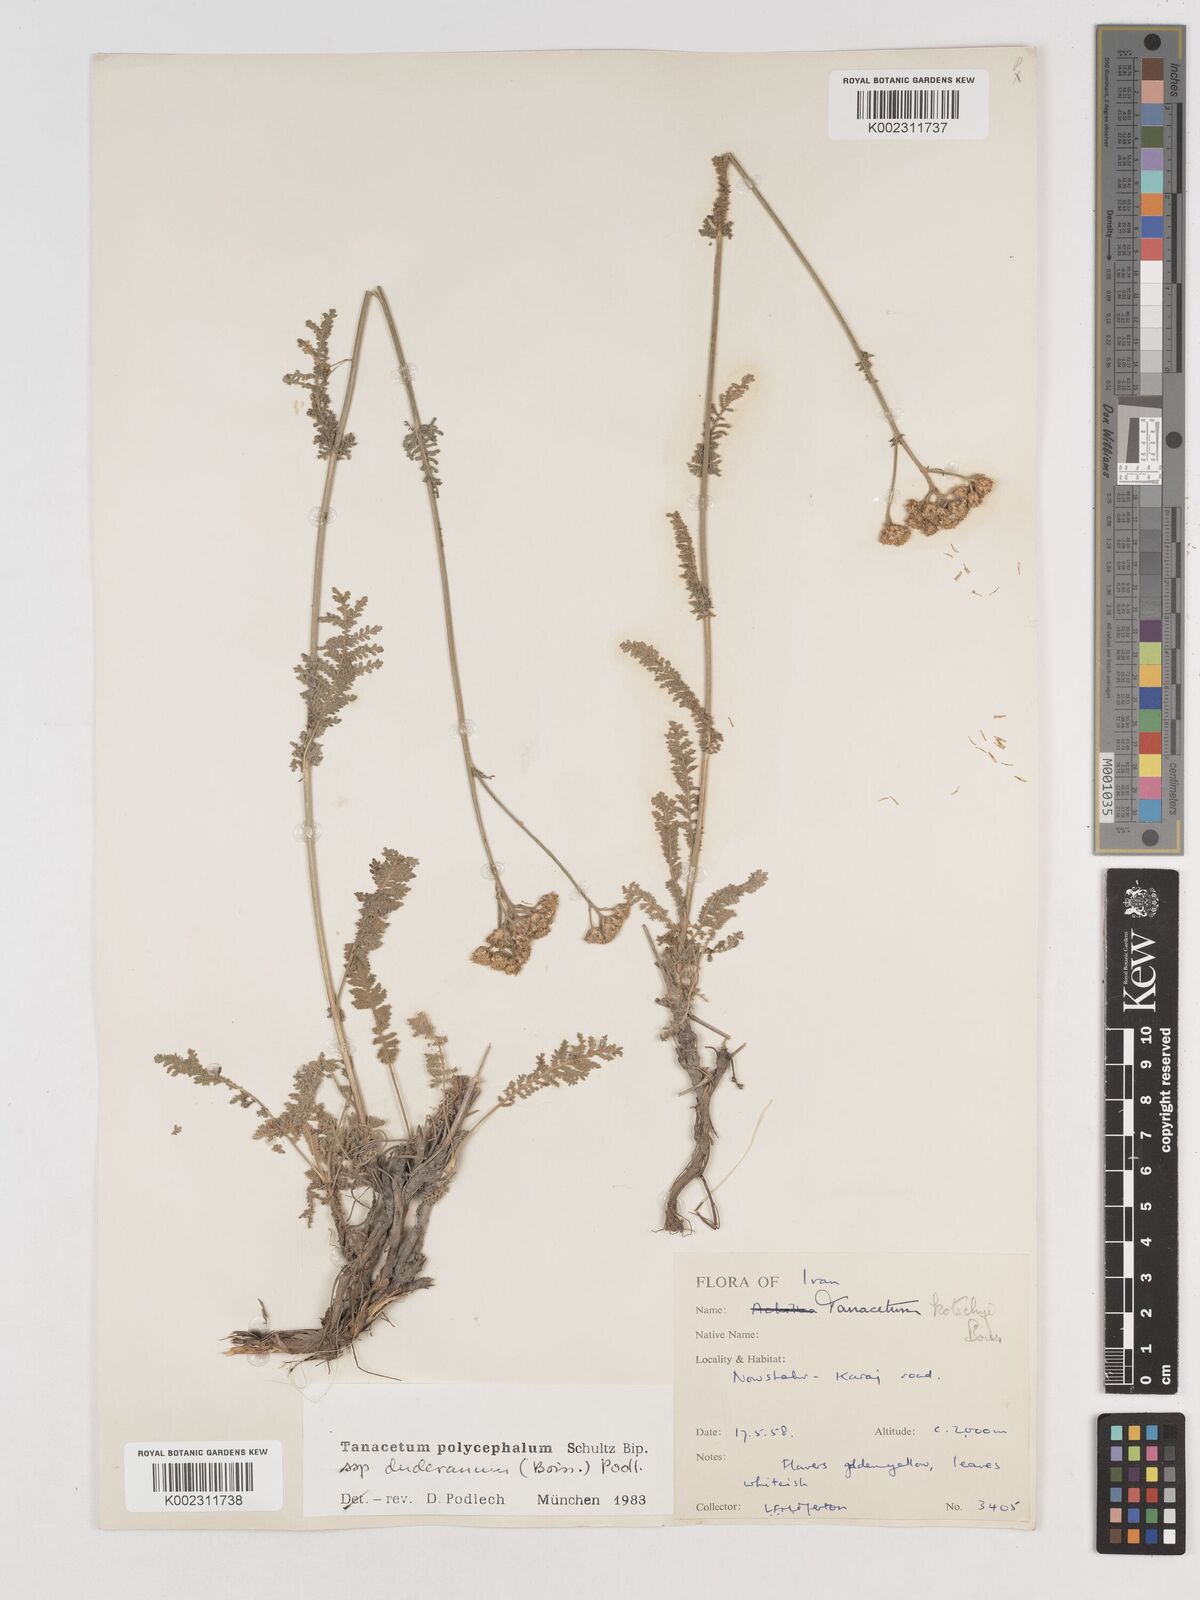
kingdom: Plantae
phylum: Tracheophyta
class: Magnoliopsida
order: Asterales
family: Asteraceae
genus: Tanacetum
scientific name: Tanacetum polycephalum
